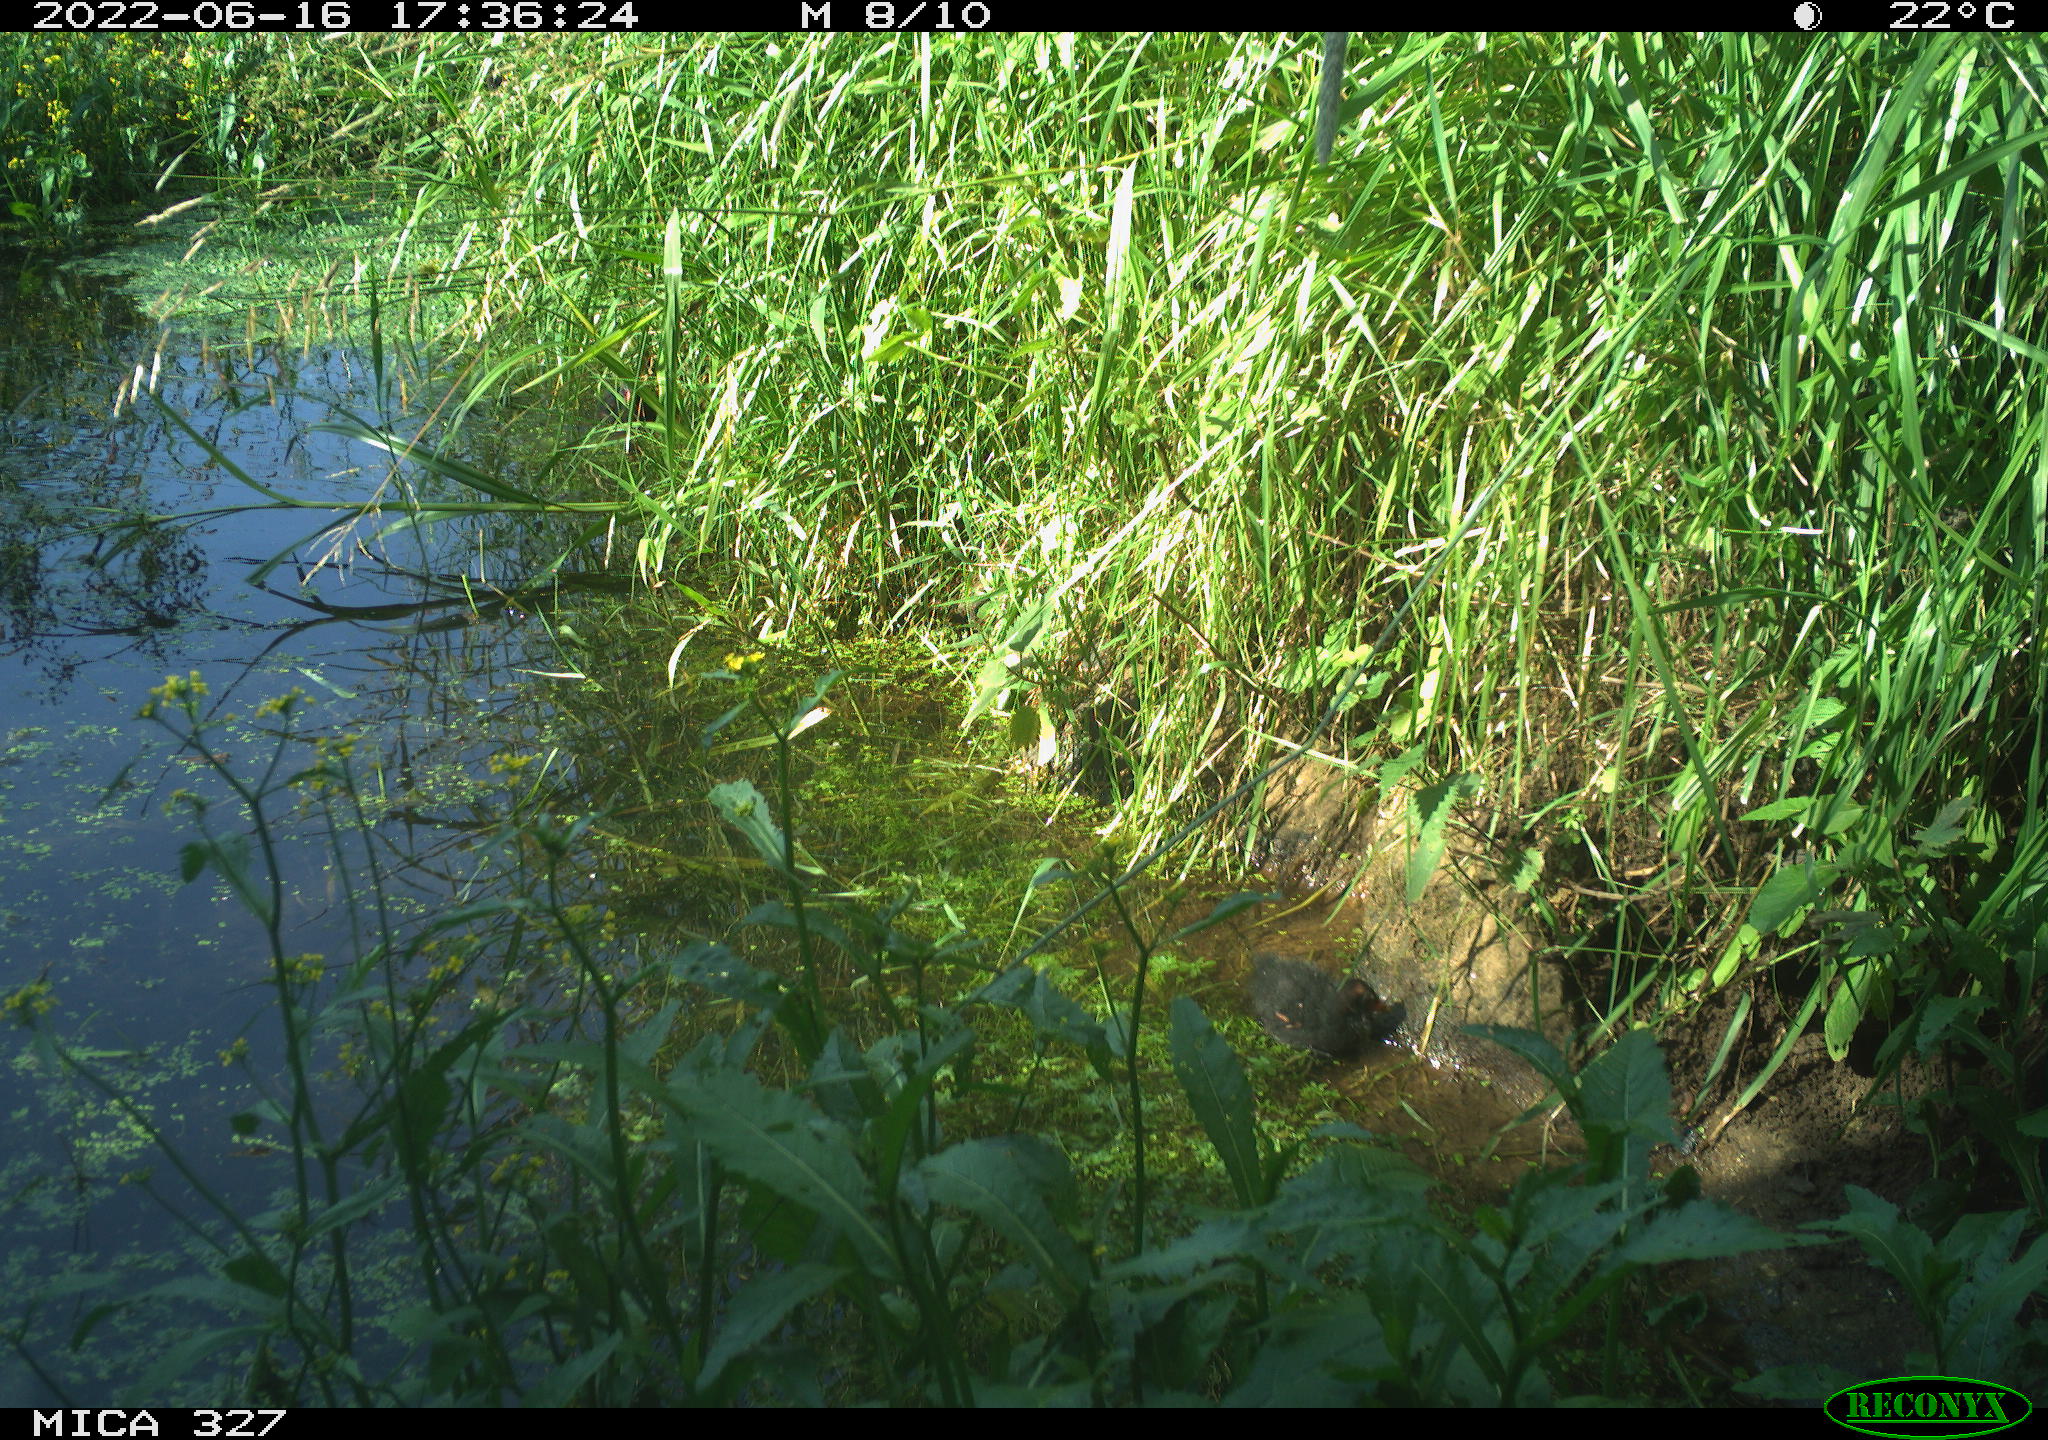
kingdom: Animalia
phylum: Chordata
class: Aves
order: Gruiformes
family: Rallidae
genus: Gallinula
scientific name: Gallinula chloropus
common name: Common moorhen
